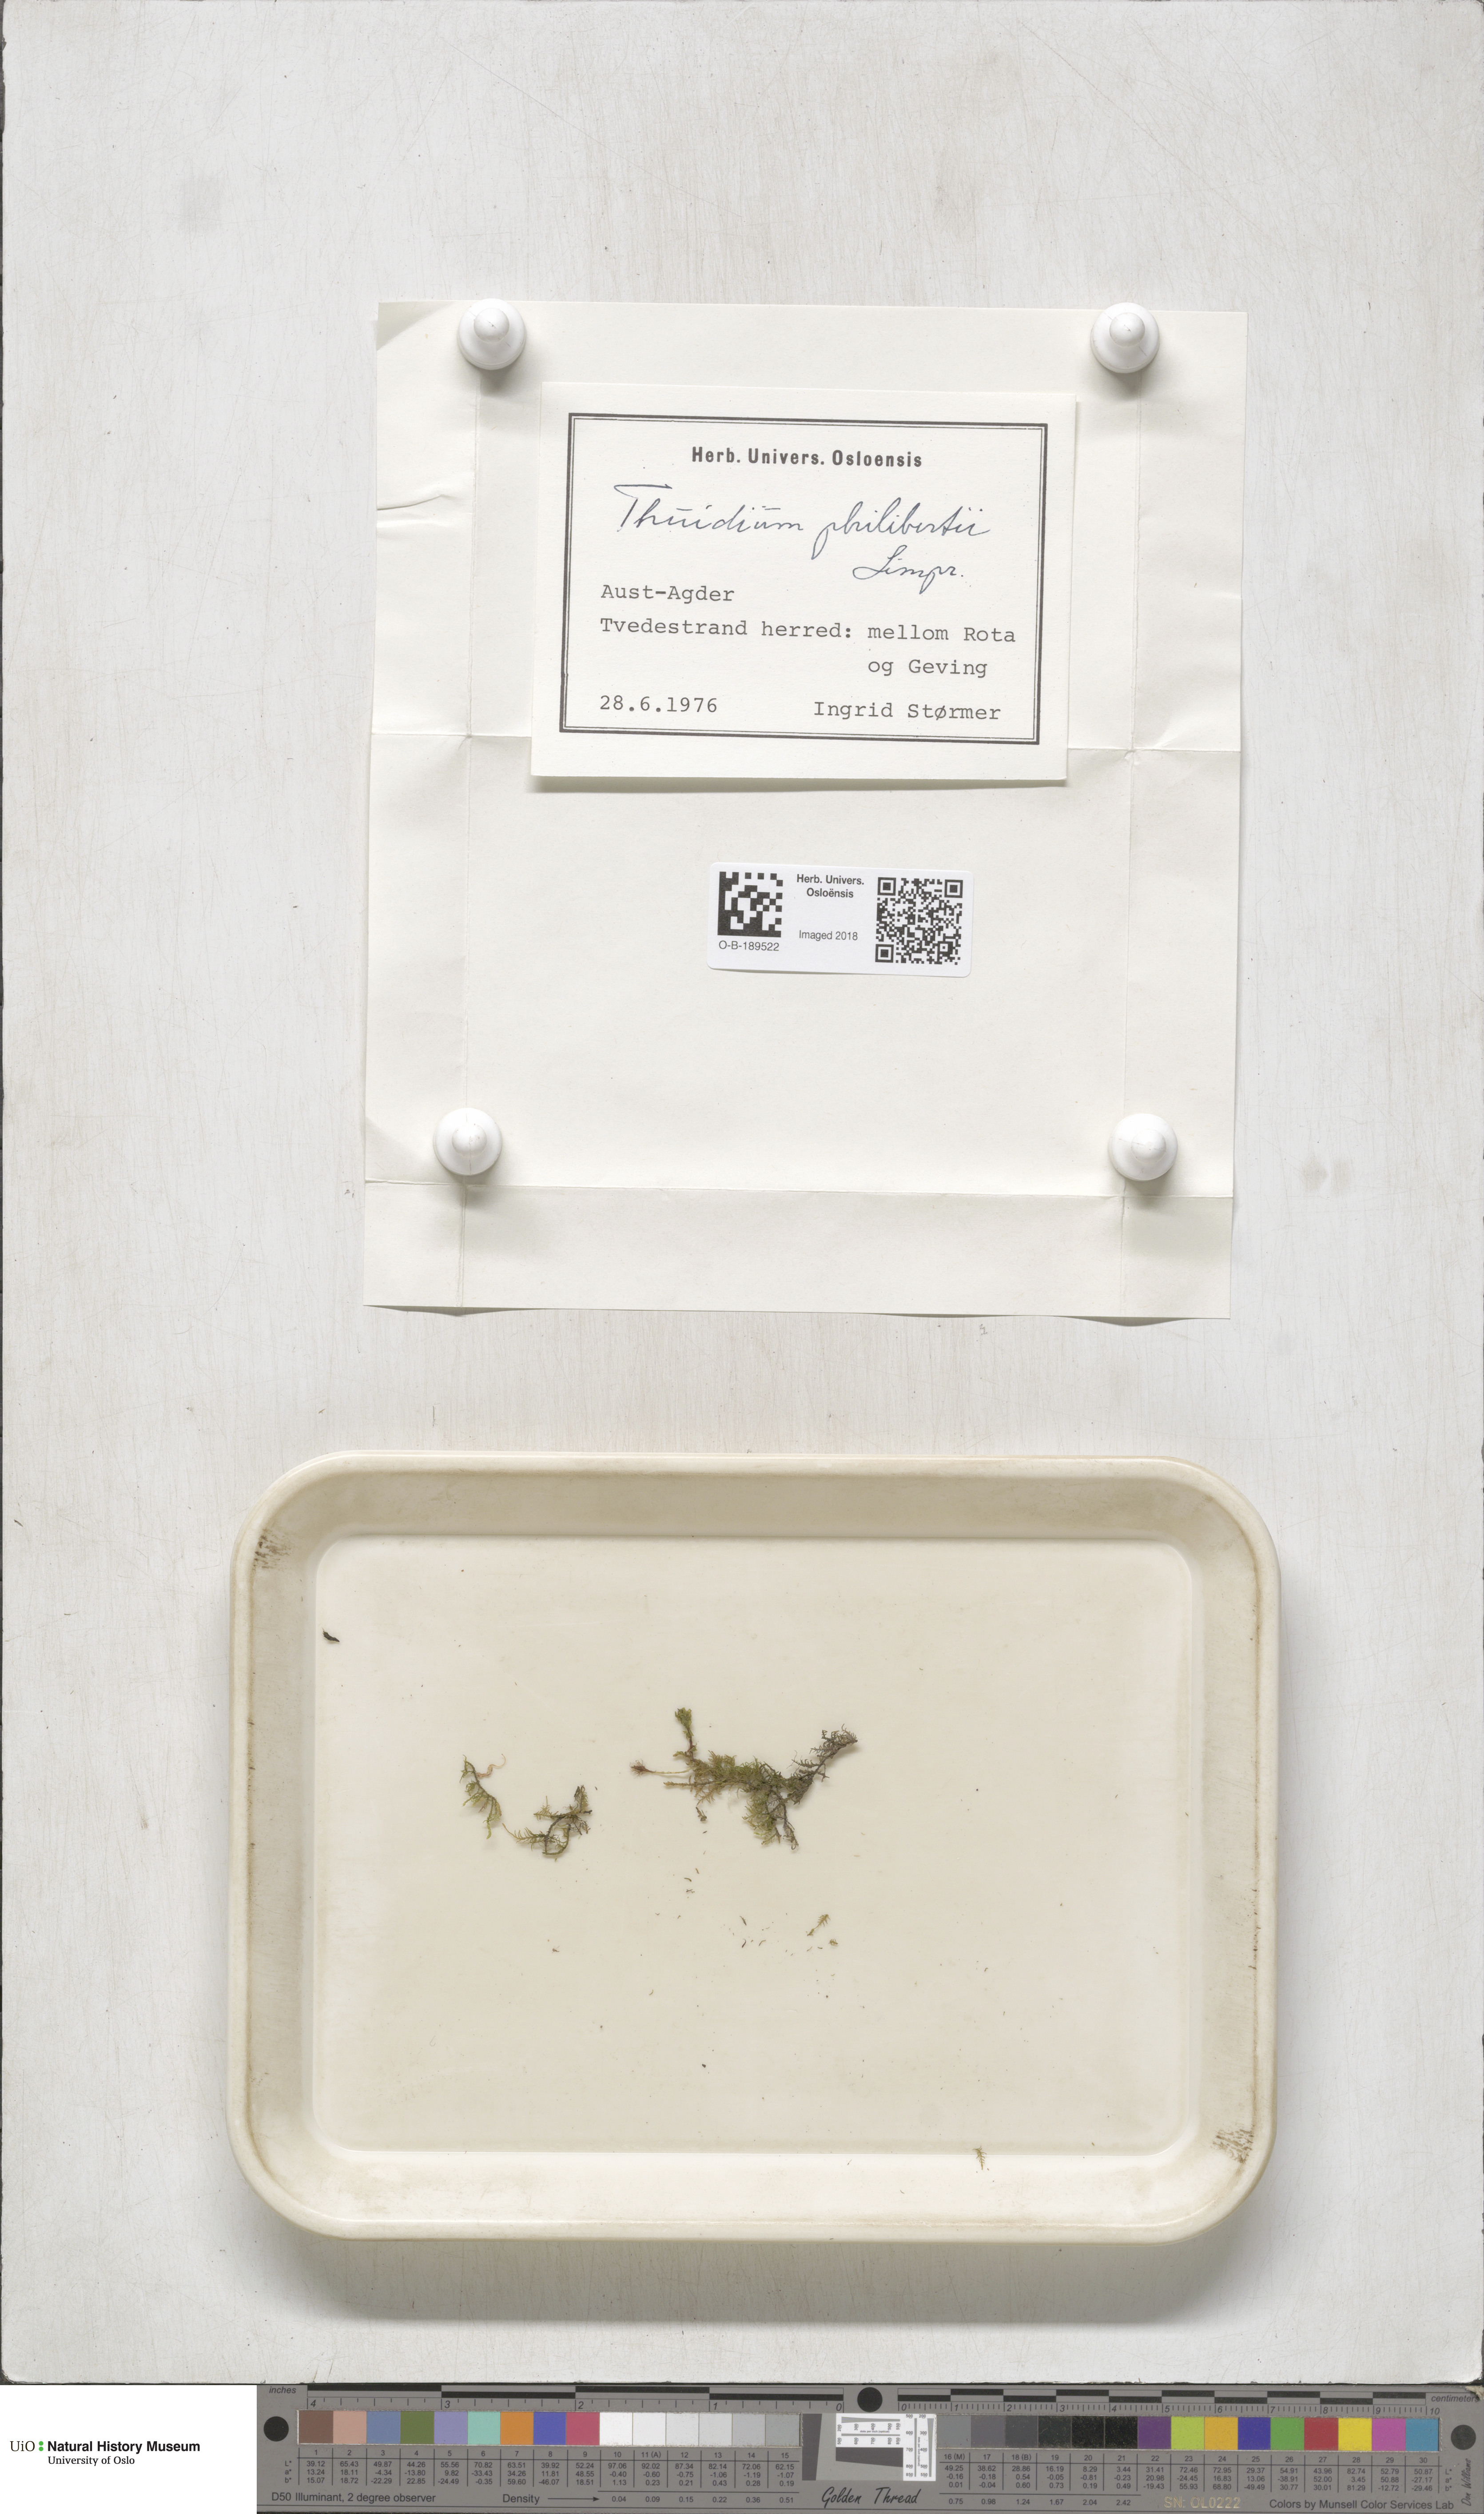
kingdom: Plantae
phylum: Bryophyta
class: Bryopsida
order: Hypnales
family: Thuidiaceae
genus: Thuidium
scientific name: Thuidium assimile
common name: Philibert's fern moss
